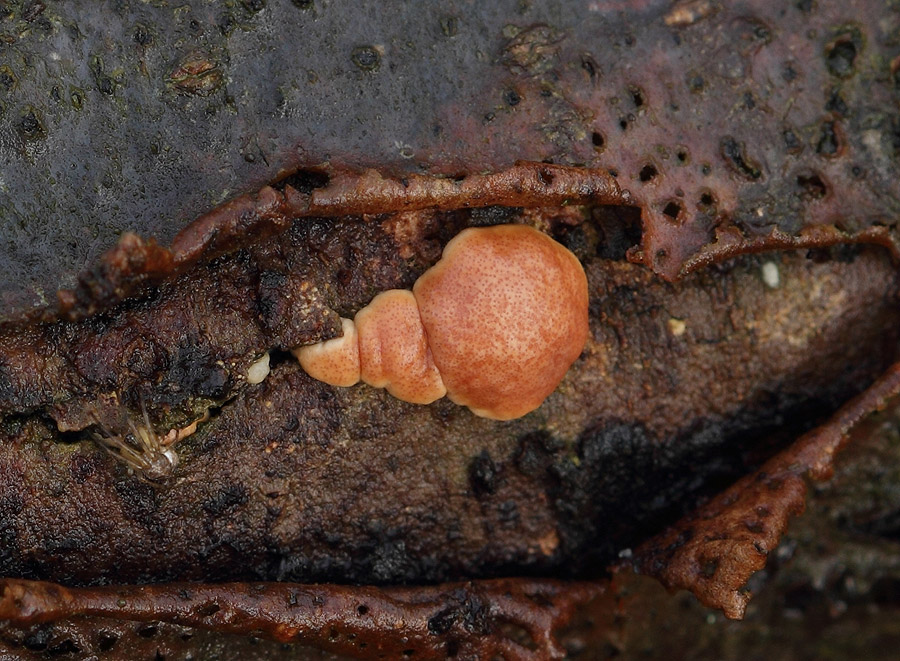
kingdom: Fungi
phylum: Ascomycota
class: Sordariomycetes
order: Hypocreales
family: Hypocreaceae
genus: Trichoderma
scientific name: Trichoderma europaeum
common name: rosabrun kødkerne
